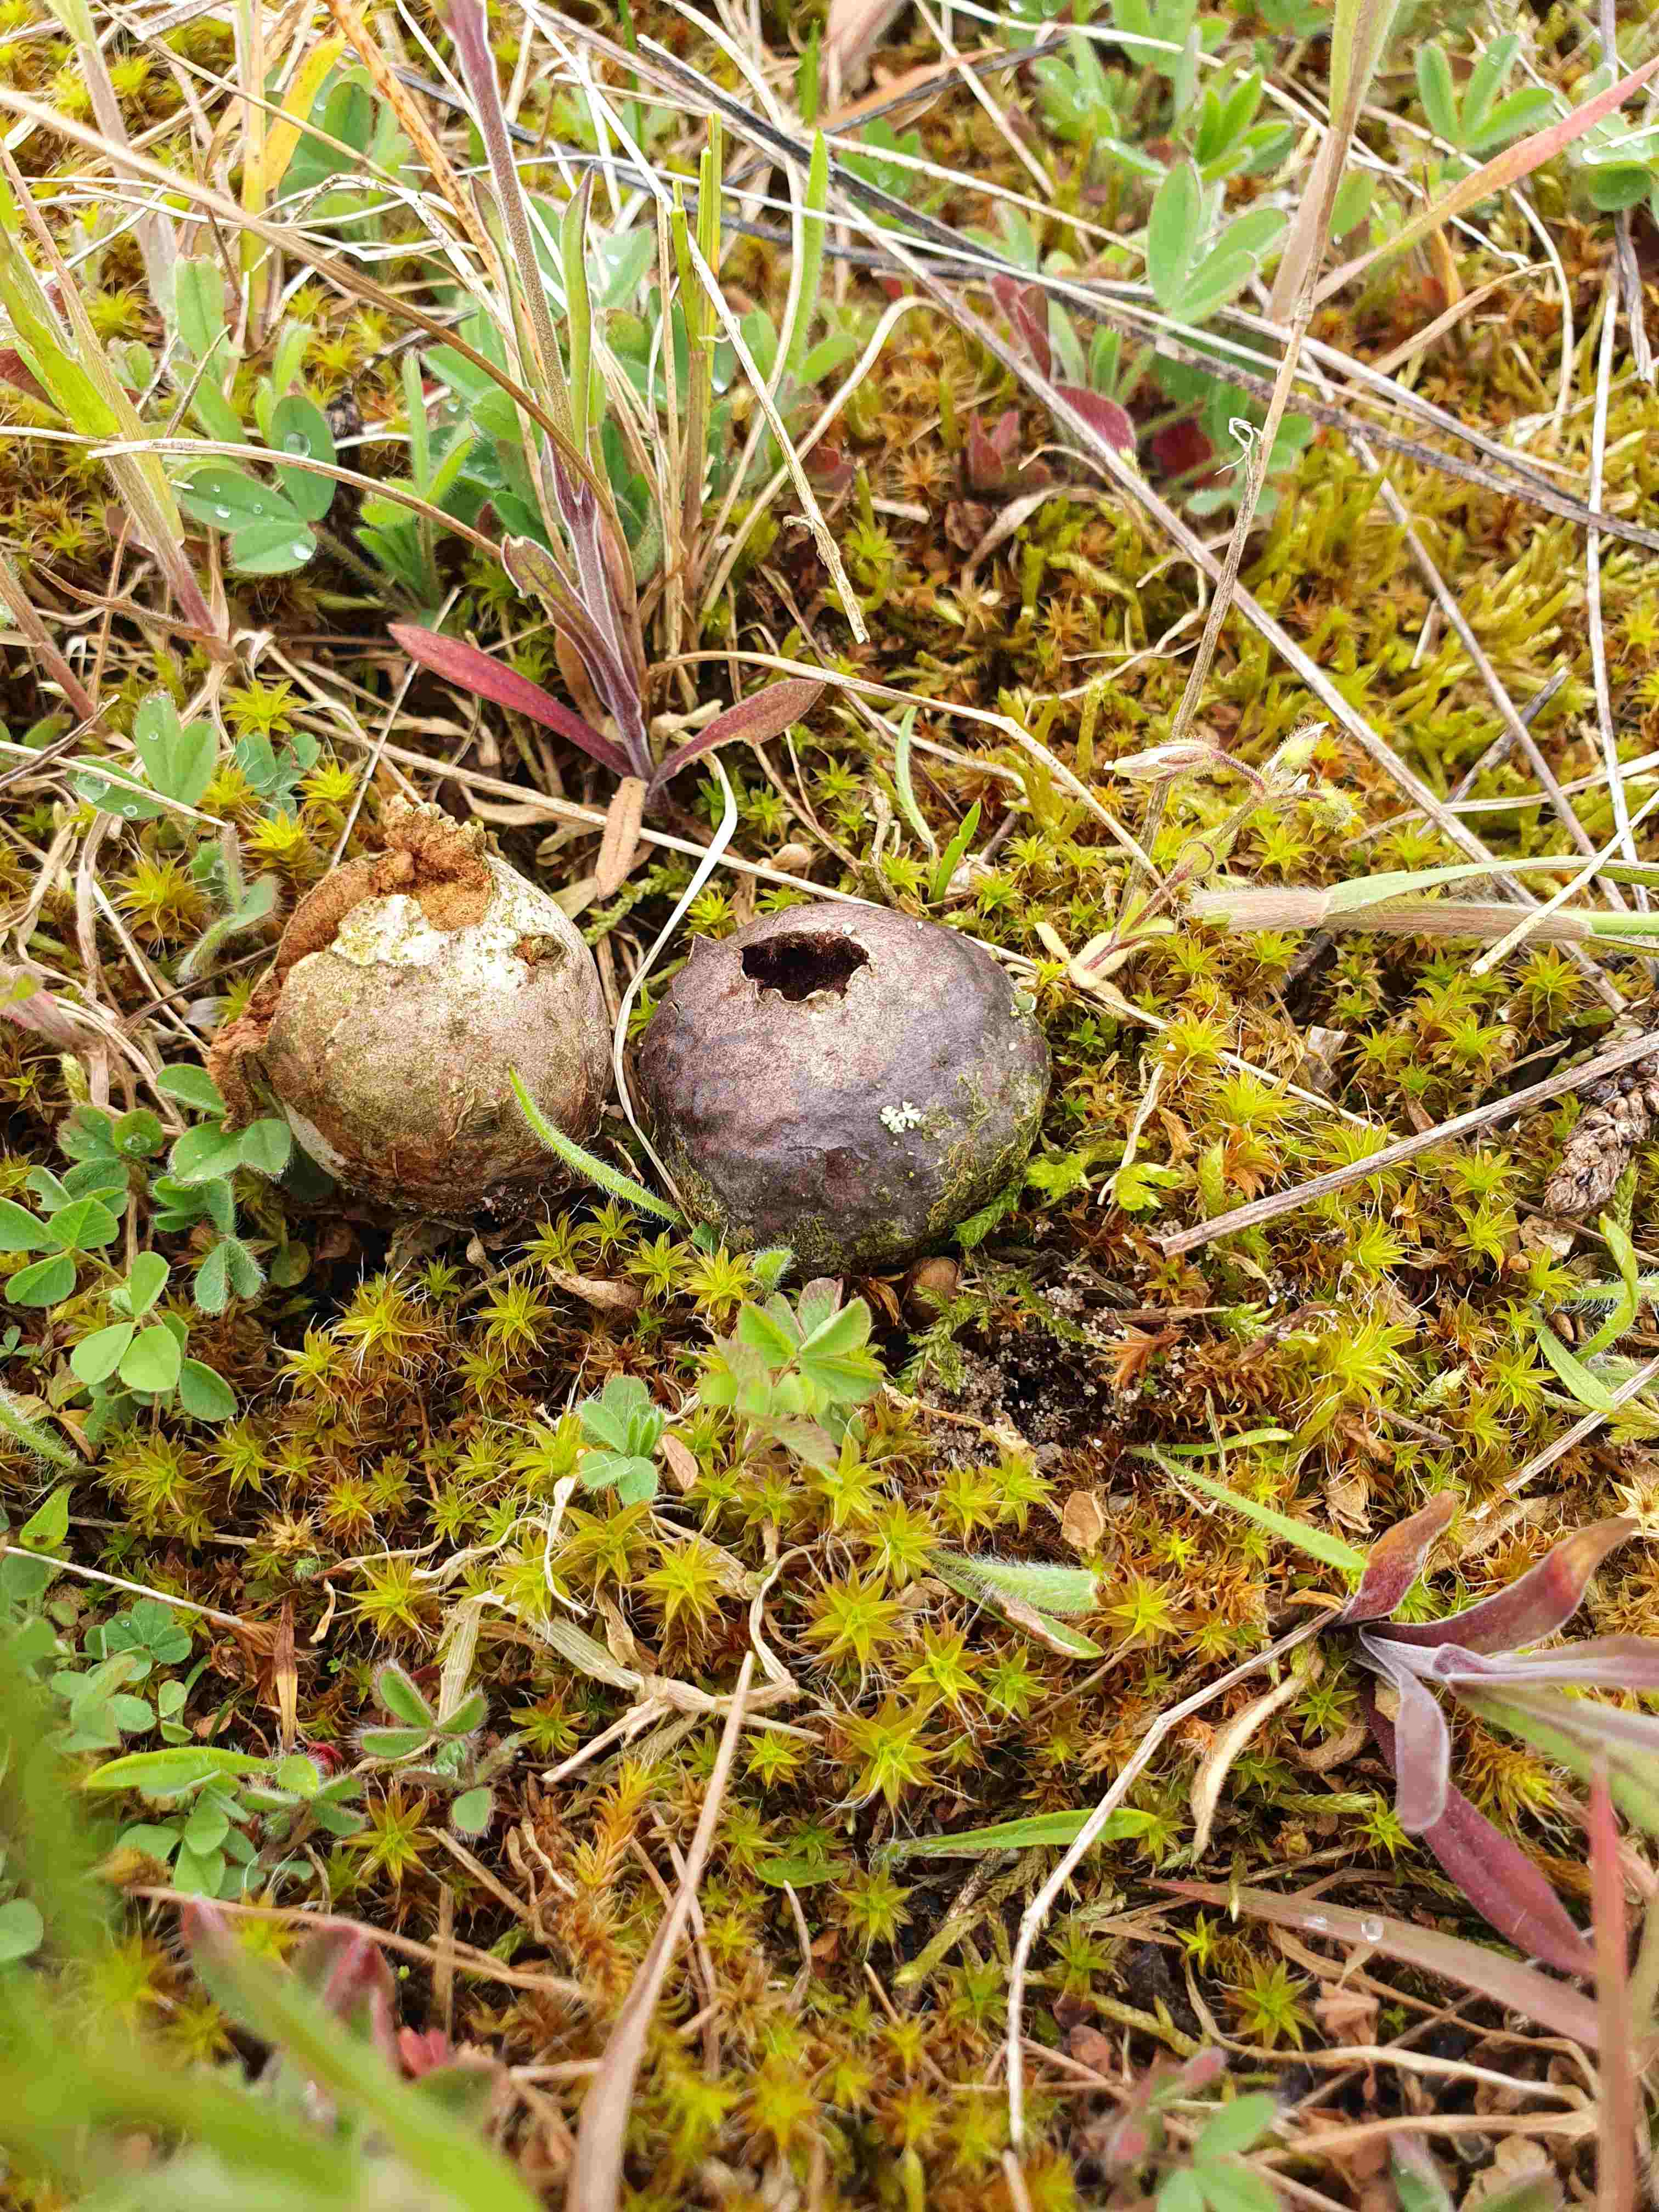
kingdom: Fungi
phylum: Basidiomycota
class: Agaricomycetes
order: Agaricales
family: Lycoperdaceae
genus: Bovista
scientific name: Bovista
